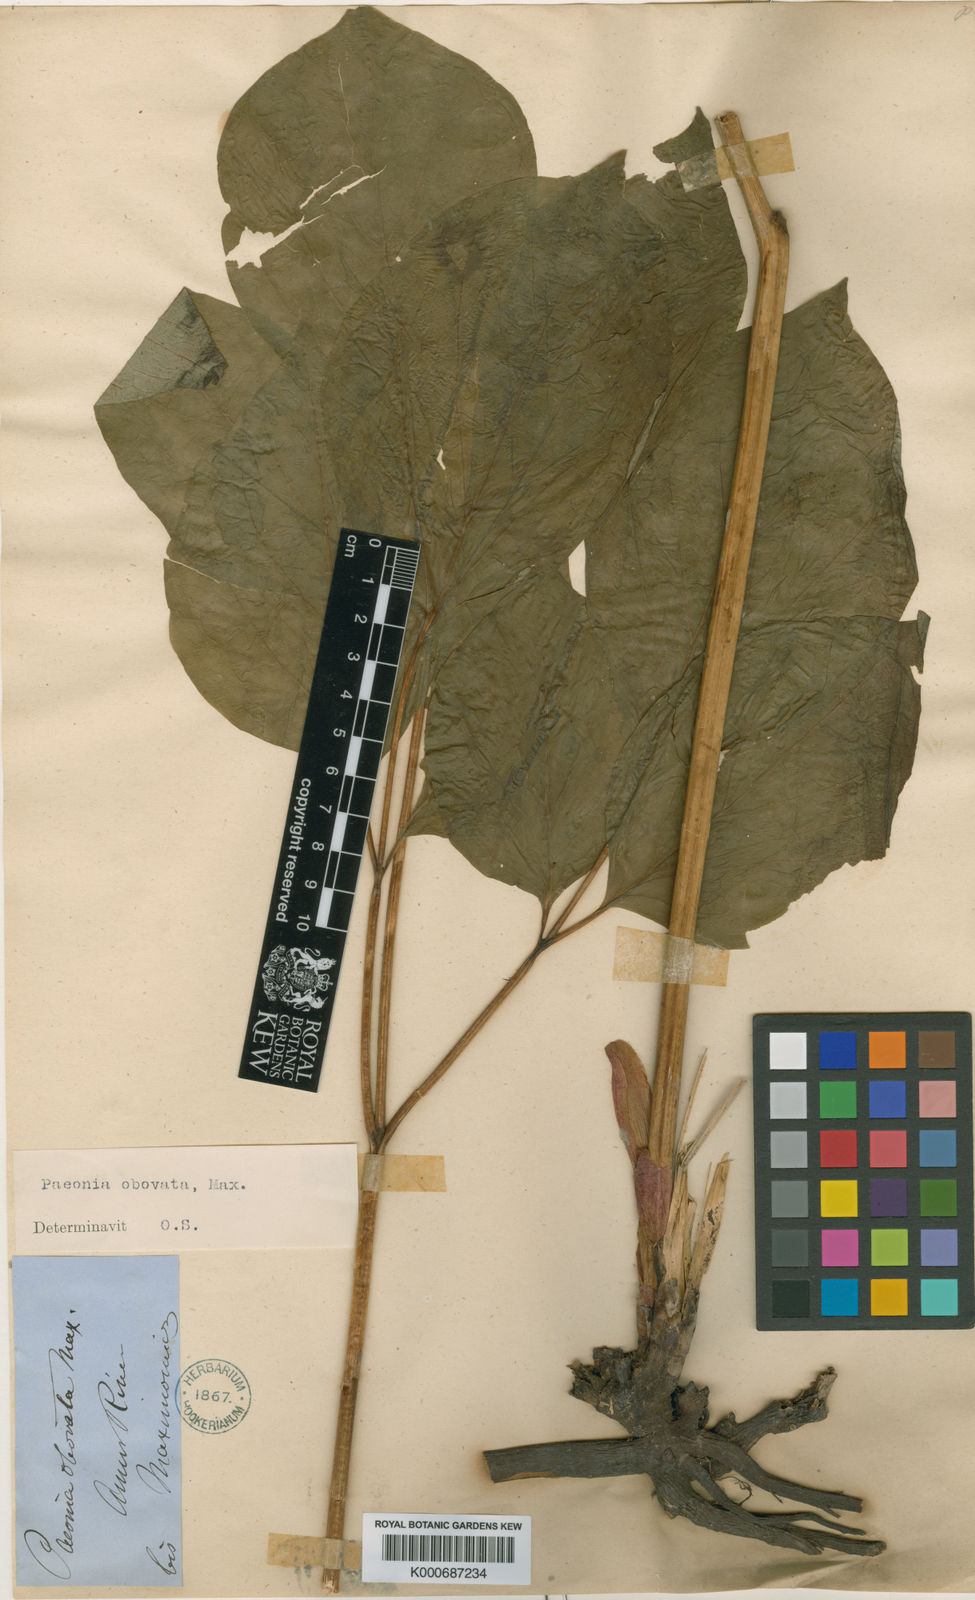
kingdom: Plantae
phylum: Tracheophyta
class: Magnoliopsida
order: Saxifragales
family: Paeoniaceae
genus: Paeonia
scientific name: Paeonia obovata
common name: Chinese peony
